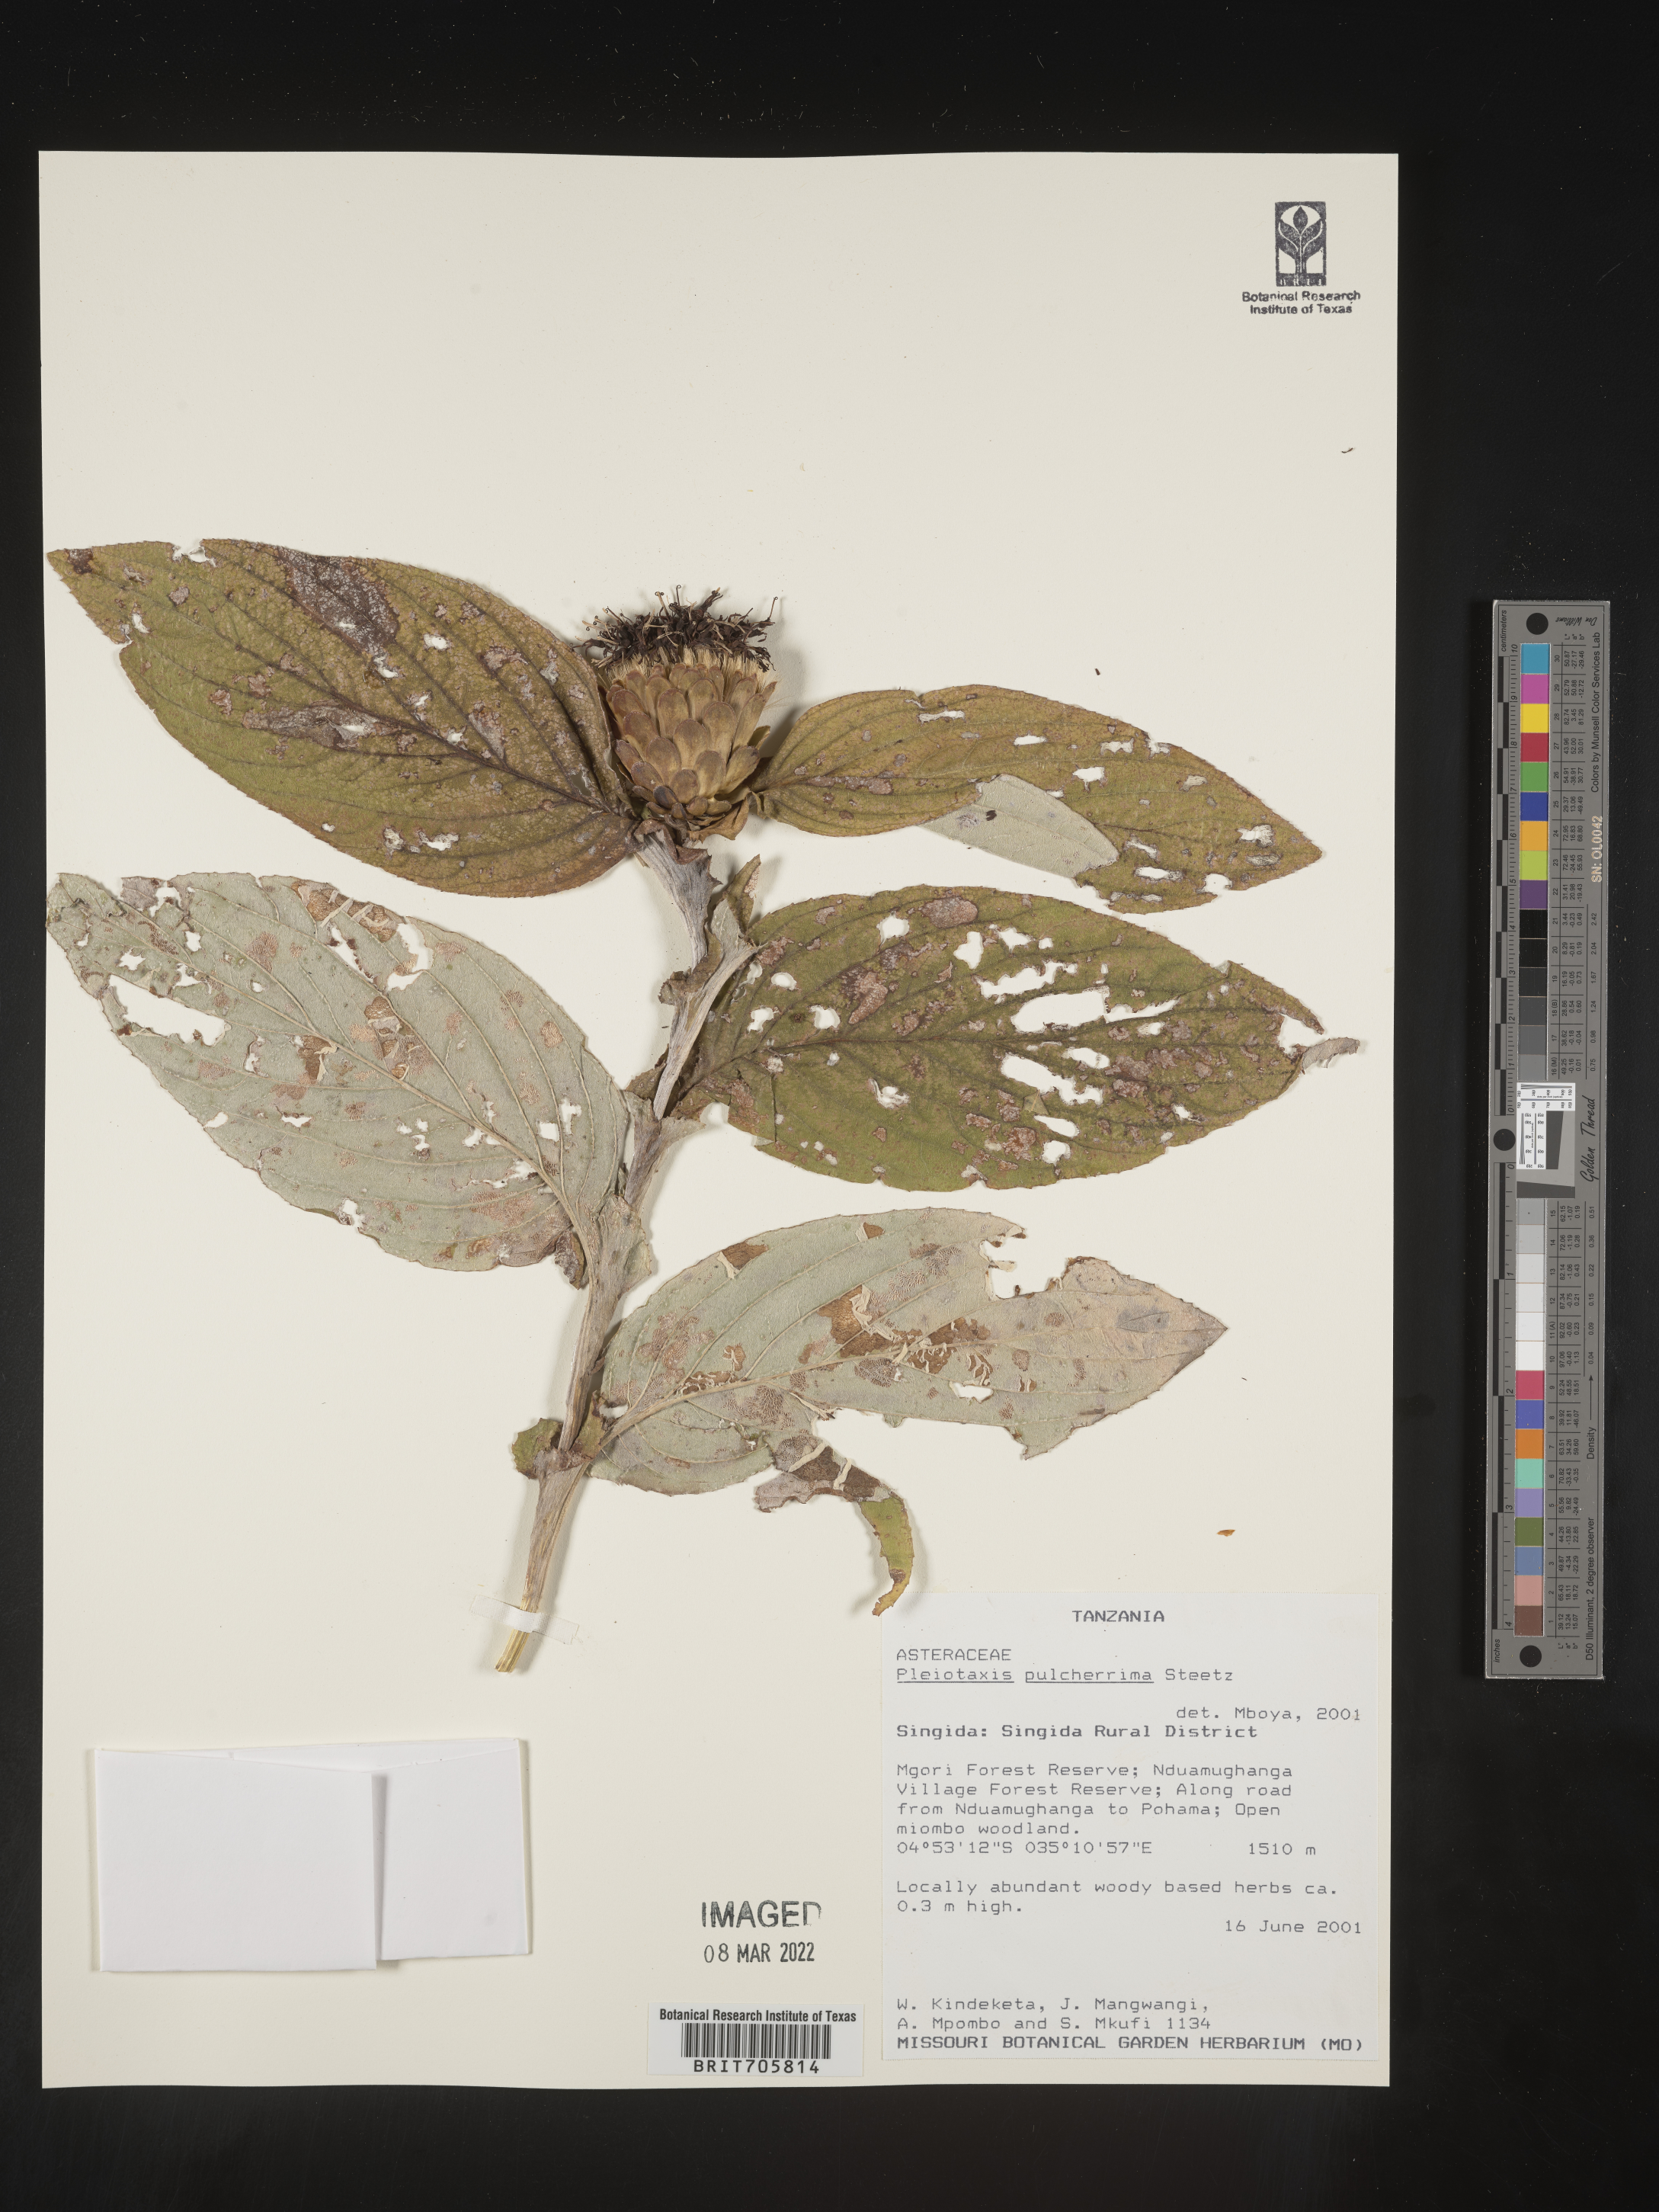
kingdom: Plantae
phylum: Tracheophyta
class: Magnoliopsida
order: Asterales
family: Asteraceae
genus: Pleiotaxis
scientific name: Pleiotaxis
